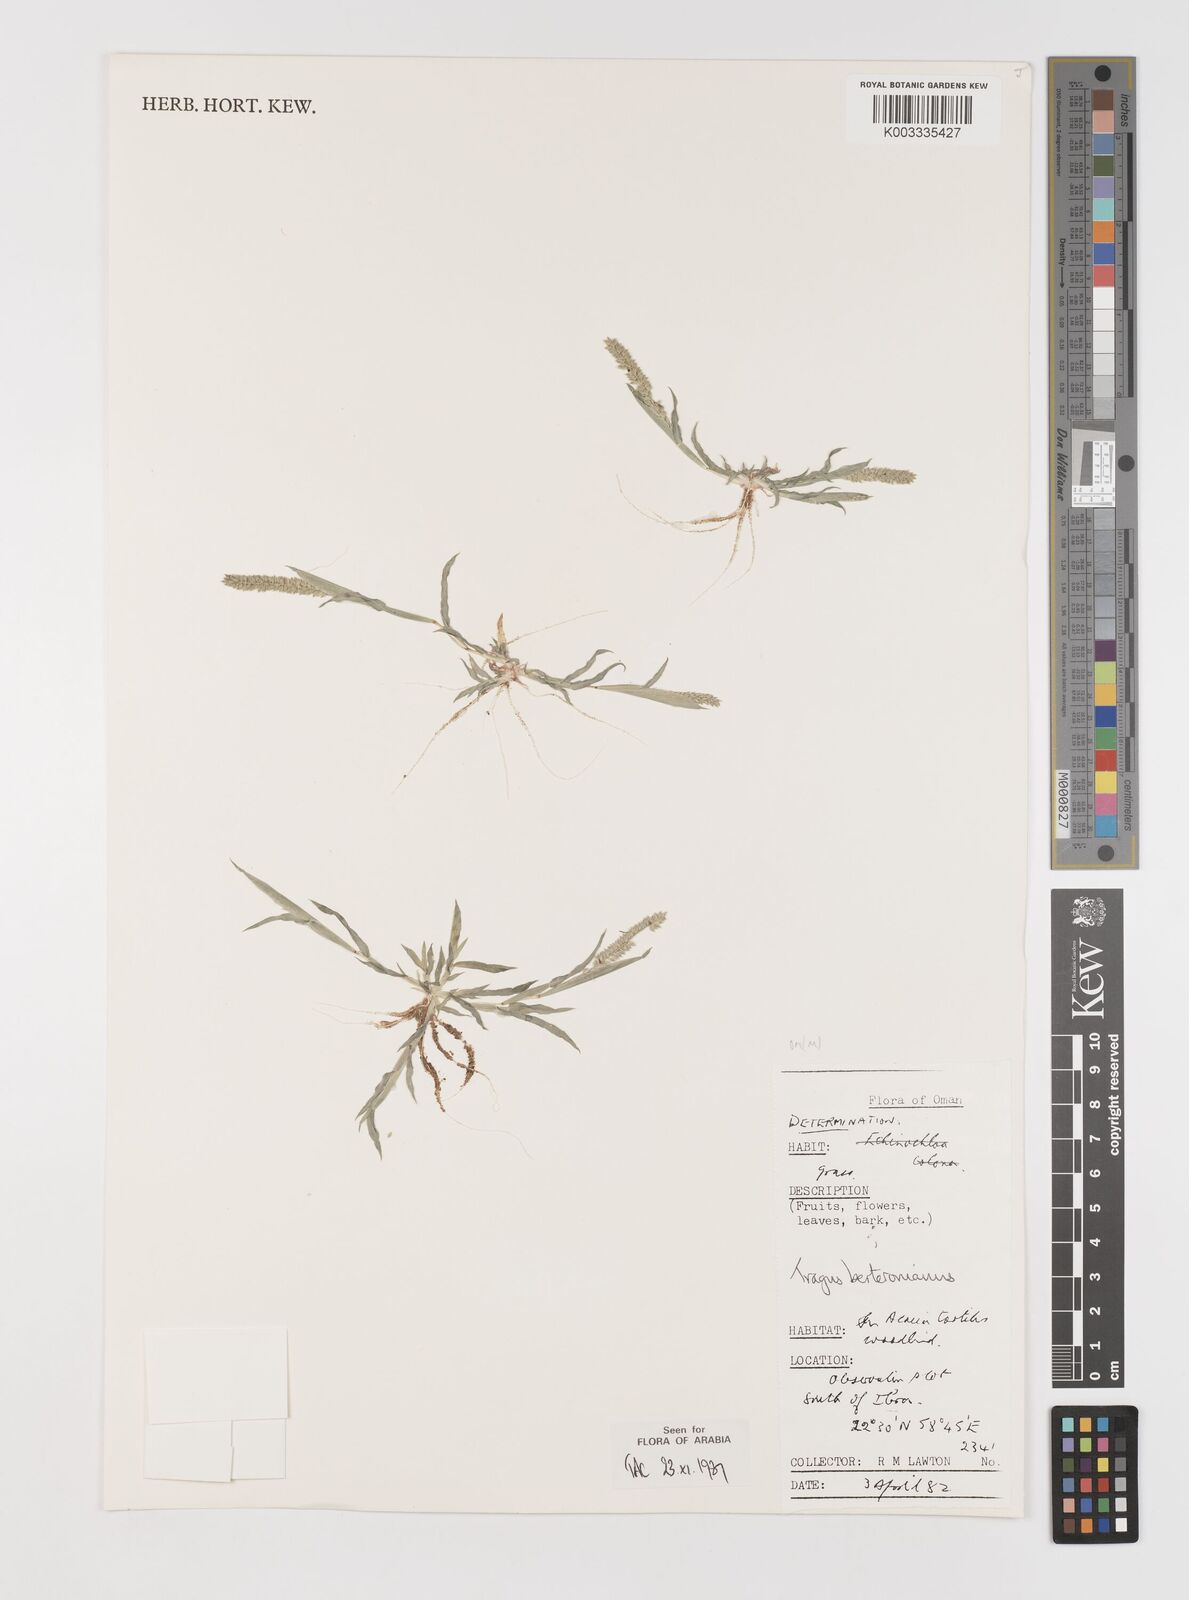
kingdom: Plantae
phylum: Tracheophyta
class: Liliopsida
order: Poales
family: Poaceae
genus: Tragus
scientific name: Tragus berteronianus
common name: African bur-grass
